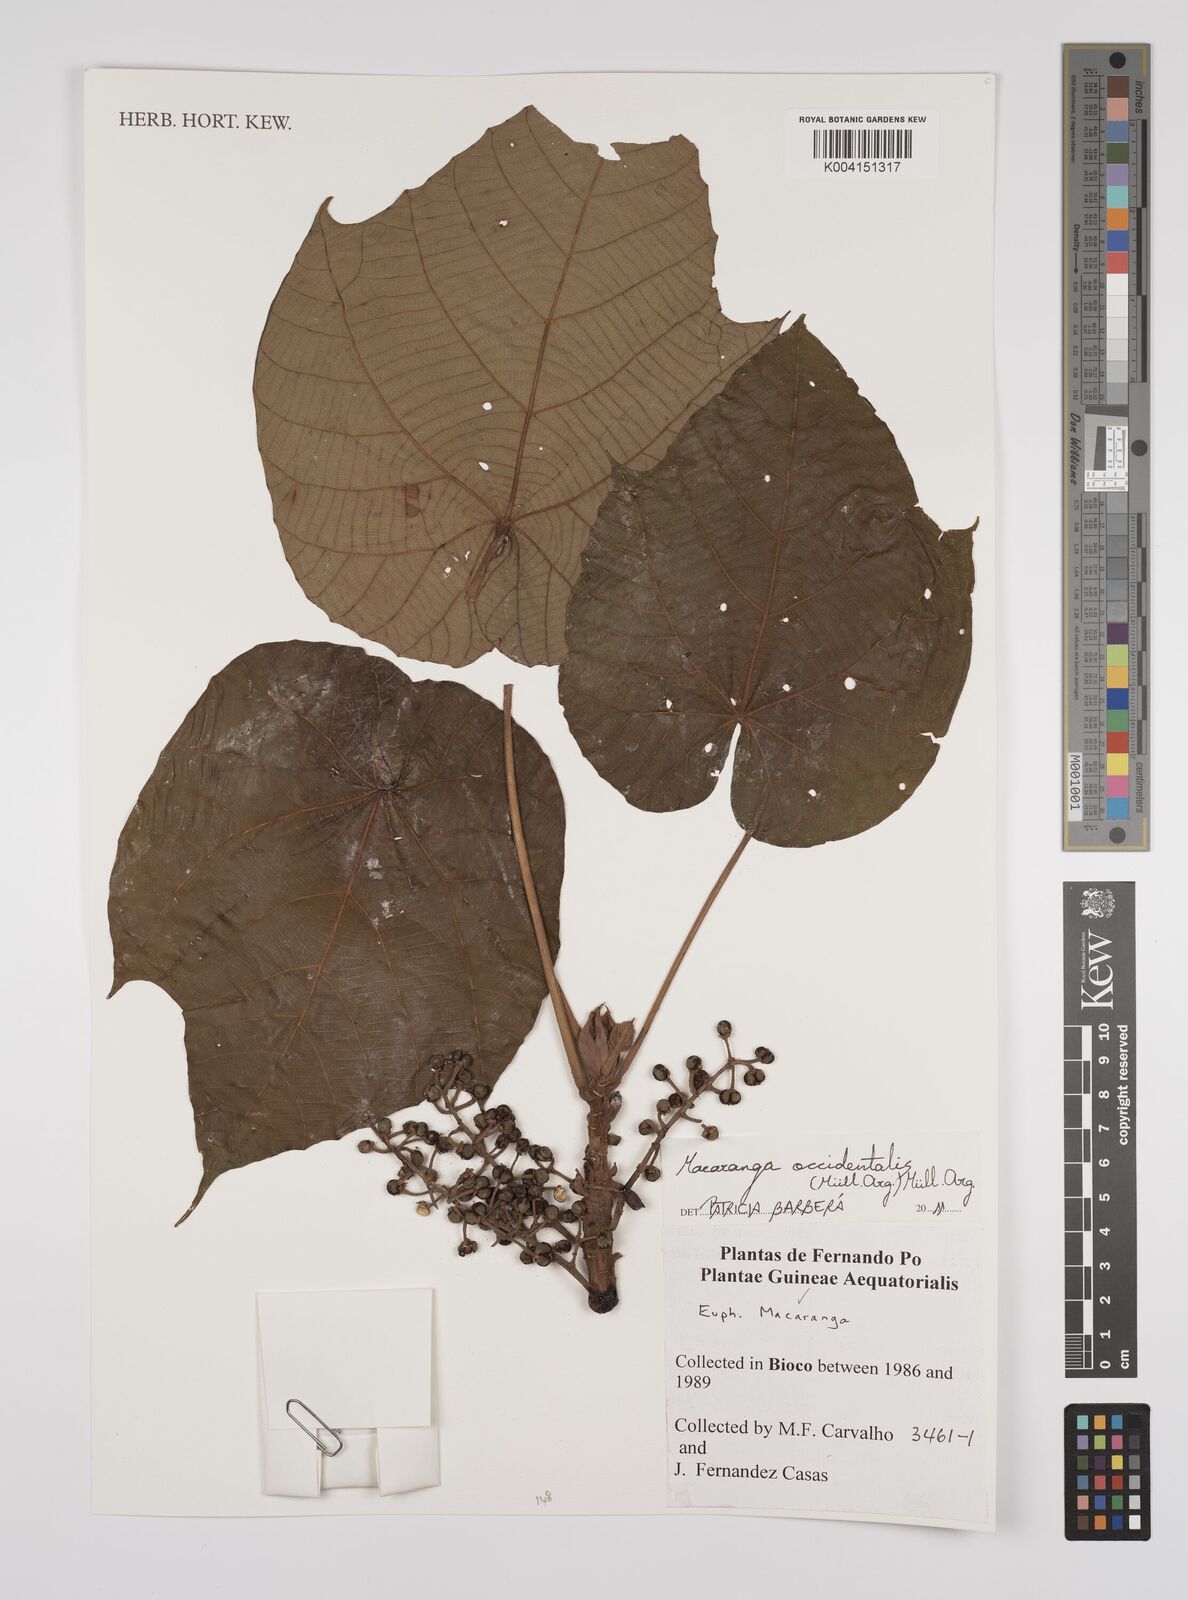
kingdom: Plantae
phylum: Tracheophyta
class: Magnoliopsida
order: Malpighiales
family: Euphorbiaceae
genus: Macaranga
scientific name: Macaranga occidentalis
